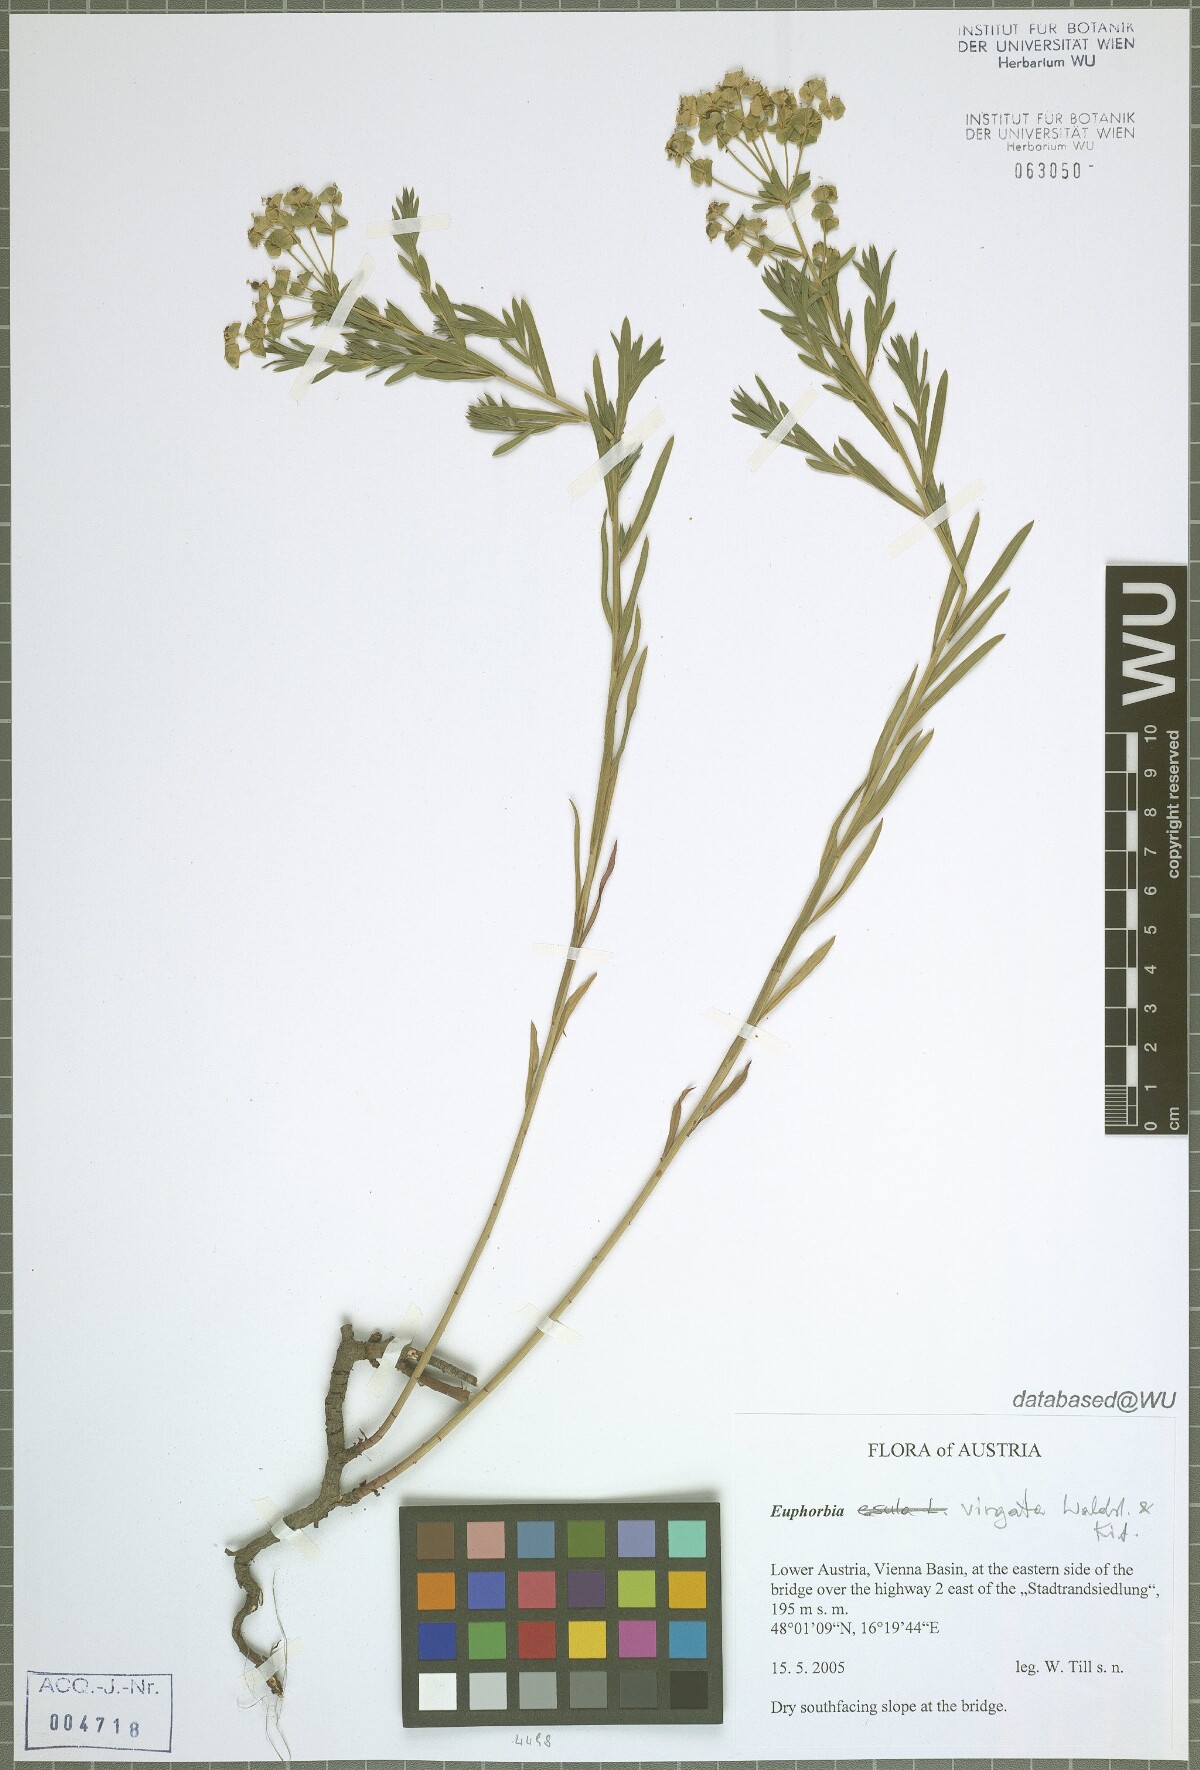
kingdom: Plantae
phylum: Tracheophyta
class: Magnoliopsida
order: Malpighiales
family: Euphorbiaceae
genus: Euphorbia
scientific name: Euphorbia virgata
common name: Leafy spurge
